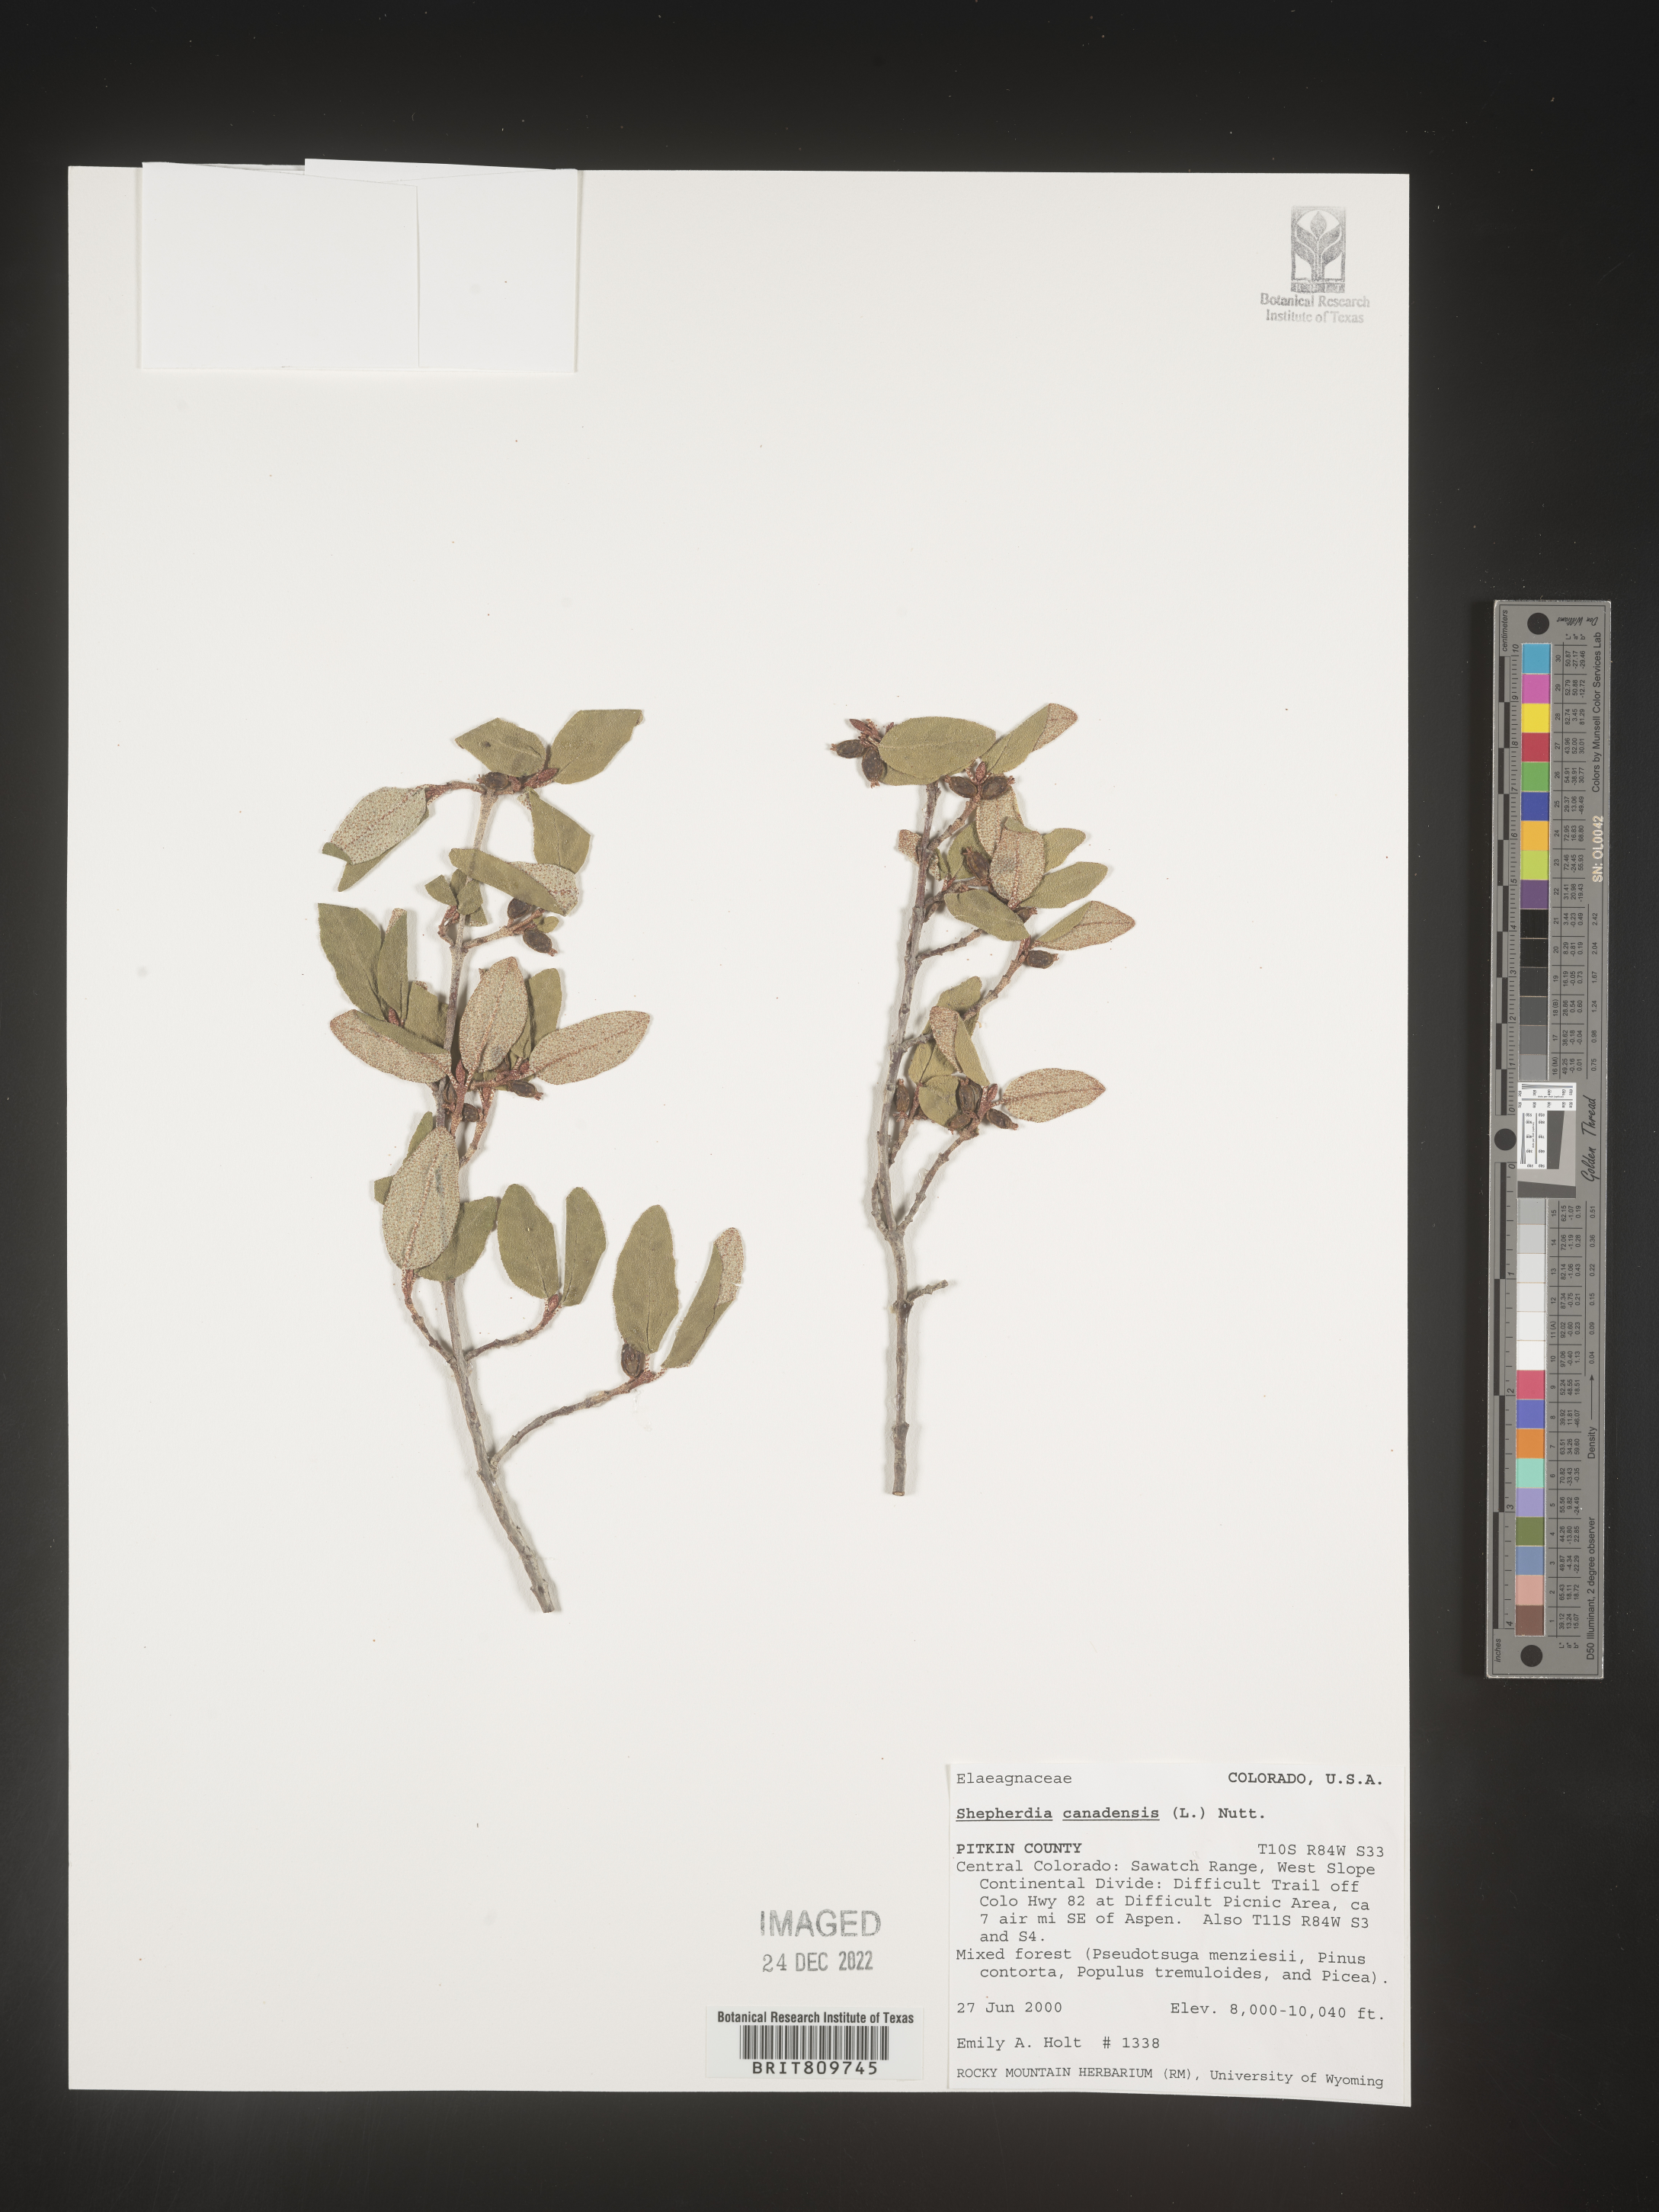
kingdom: Plantae
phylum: Tracheophyta
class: Magnoliopsida
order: Rosales
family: Elaeagnaceae
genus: Shepherdia
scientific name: Shepherdia canadensis
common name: Soapberry
